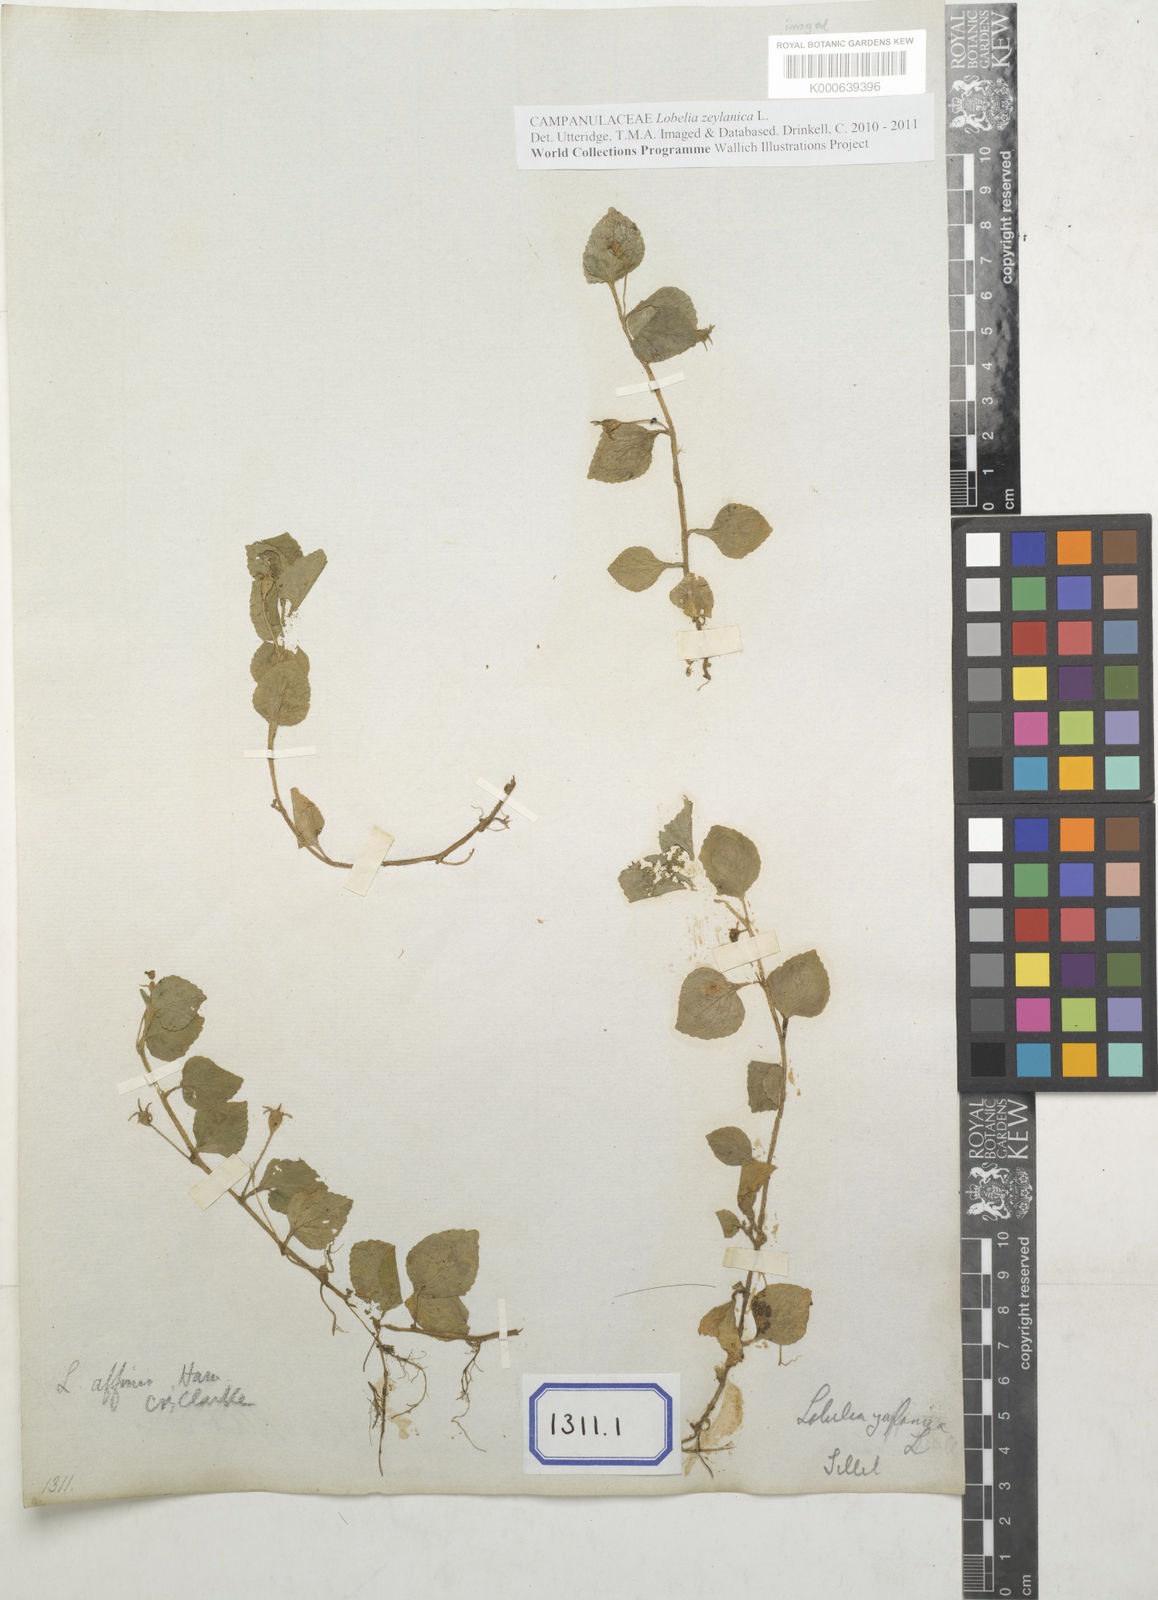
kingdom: Plantae
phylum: Tracheophyta
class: Magnoliopsida
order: Asterales
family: Campanulaceae
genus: Lobelia
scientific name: Lobelia
